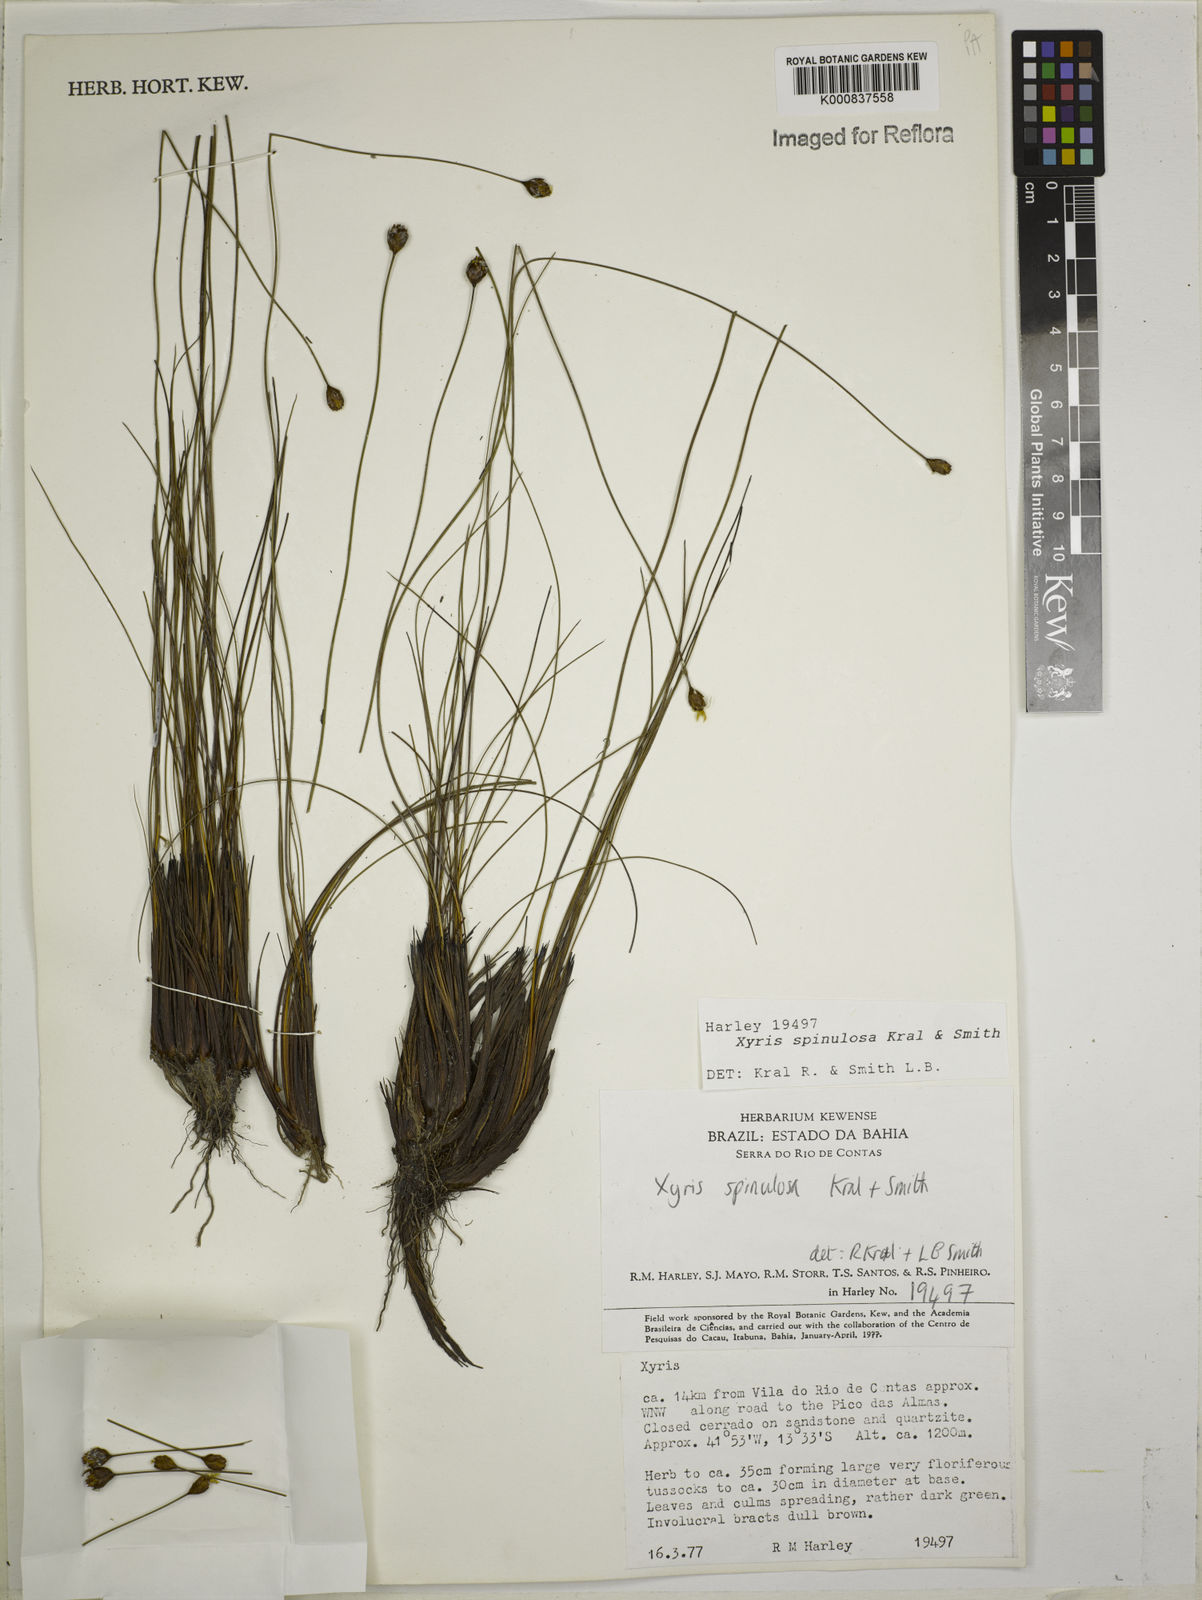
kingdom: Plantae
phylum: Tracheophyta
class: Liliopsida
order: Poales
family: Xyridaceae
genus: Xyris
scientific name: Xyris spinulosa
